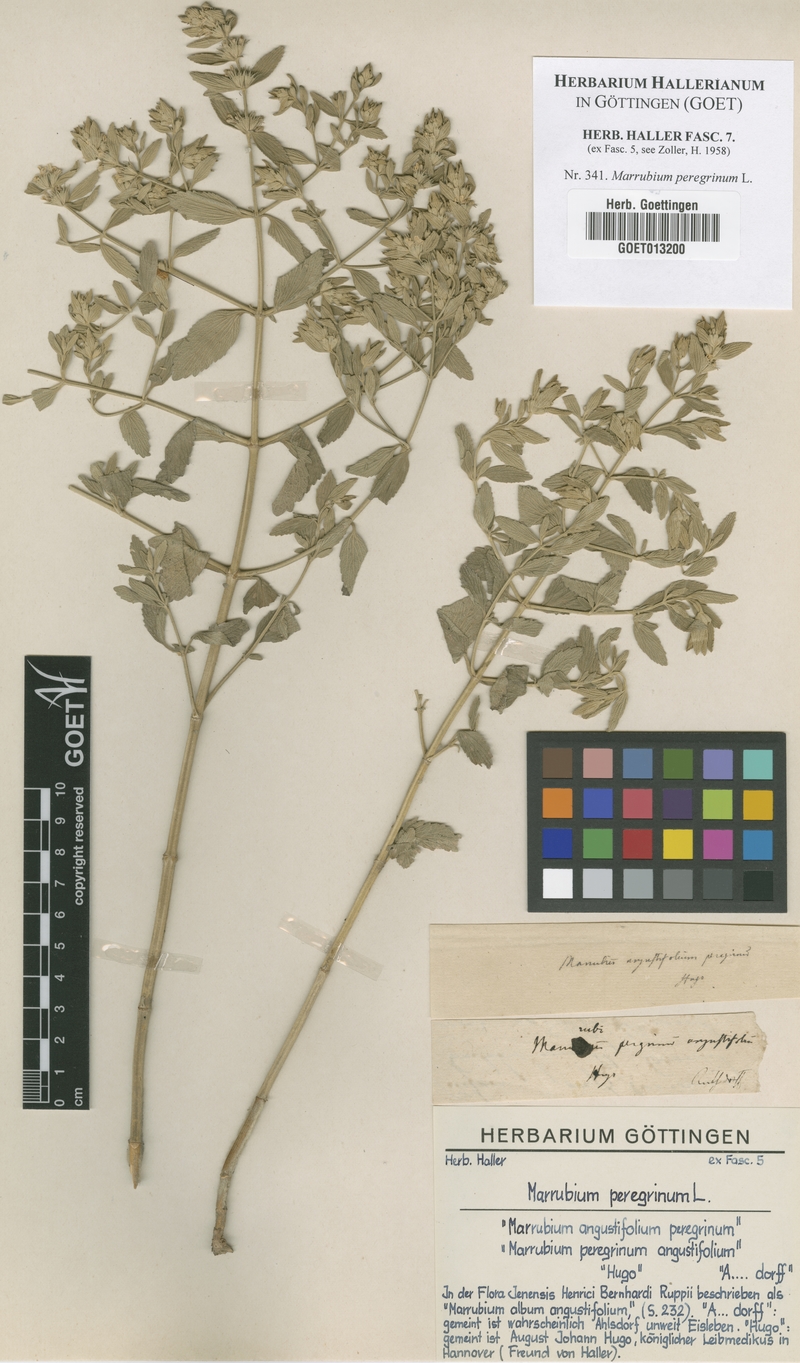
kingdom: Plantae
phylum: Tracheophyta
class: Magnoliopsida
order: Lamiales
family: Lamiaceae
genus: Marrubium
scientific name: Marrubium peregrinum
